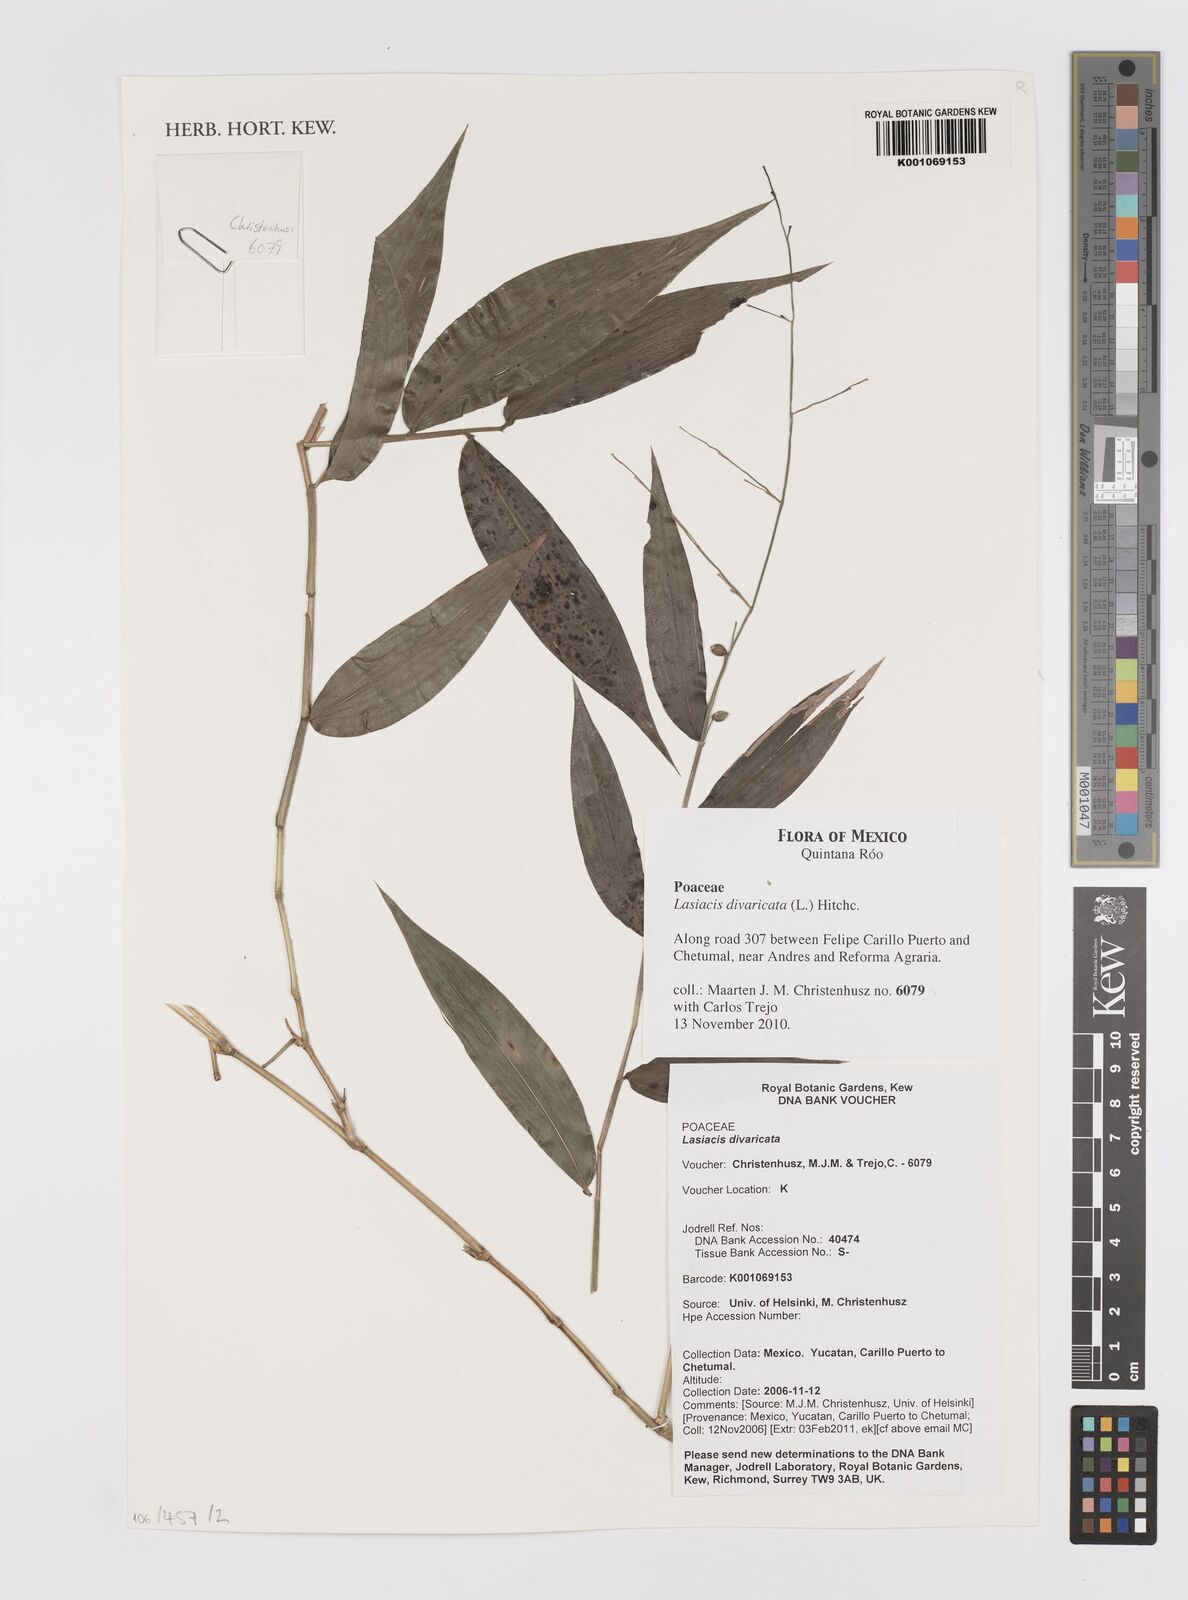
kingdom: Plantae
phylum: Tracheophyta
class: Liliopsida
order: Poales
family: Poaceae
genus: Lasiacis
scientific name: Lasiacis divaricata
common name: Smallcane
